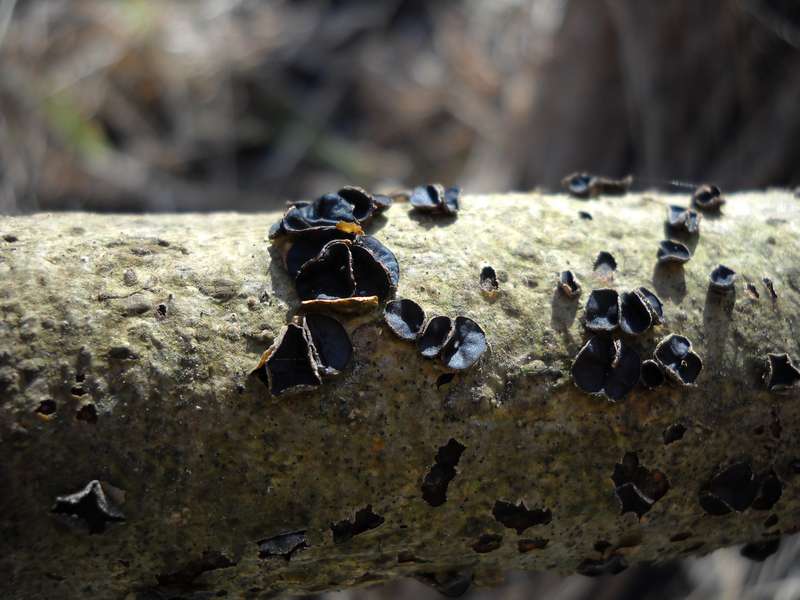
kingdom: Fungi
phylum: Ascomycota
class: Leotiomycetes
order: Helotiales
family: Sclerotiniaceae
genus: Sclerencoelia
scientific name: Sclerencoelia fraxinicola
